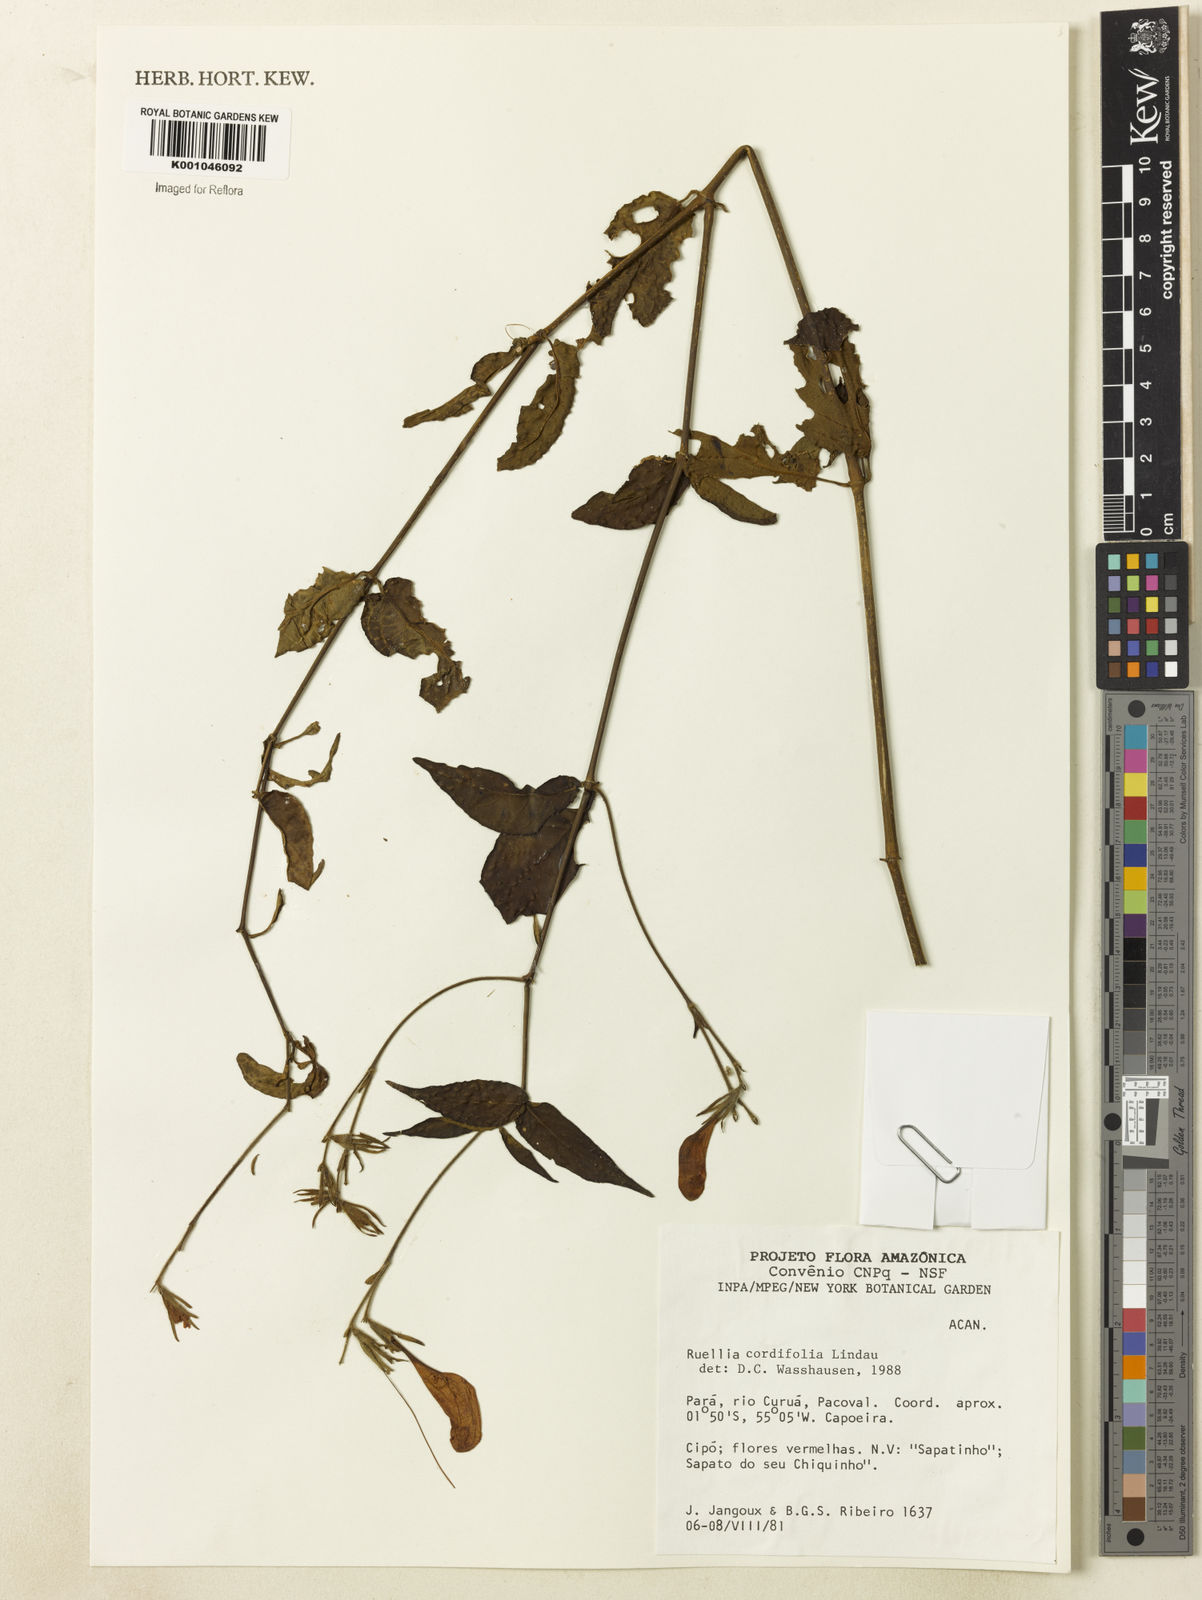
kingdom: Plantae
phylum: Tracheophyta
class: Magnoliopsida
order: Lamiales
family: Acanthaceae
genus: Ruellia
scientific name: Ruellia inflata
